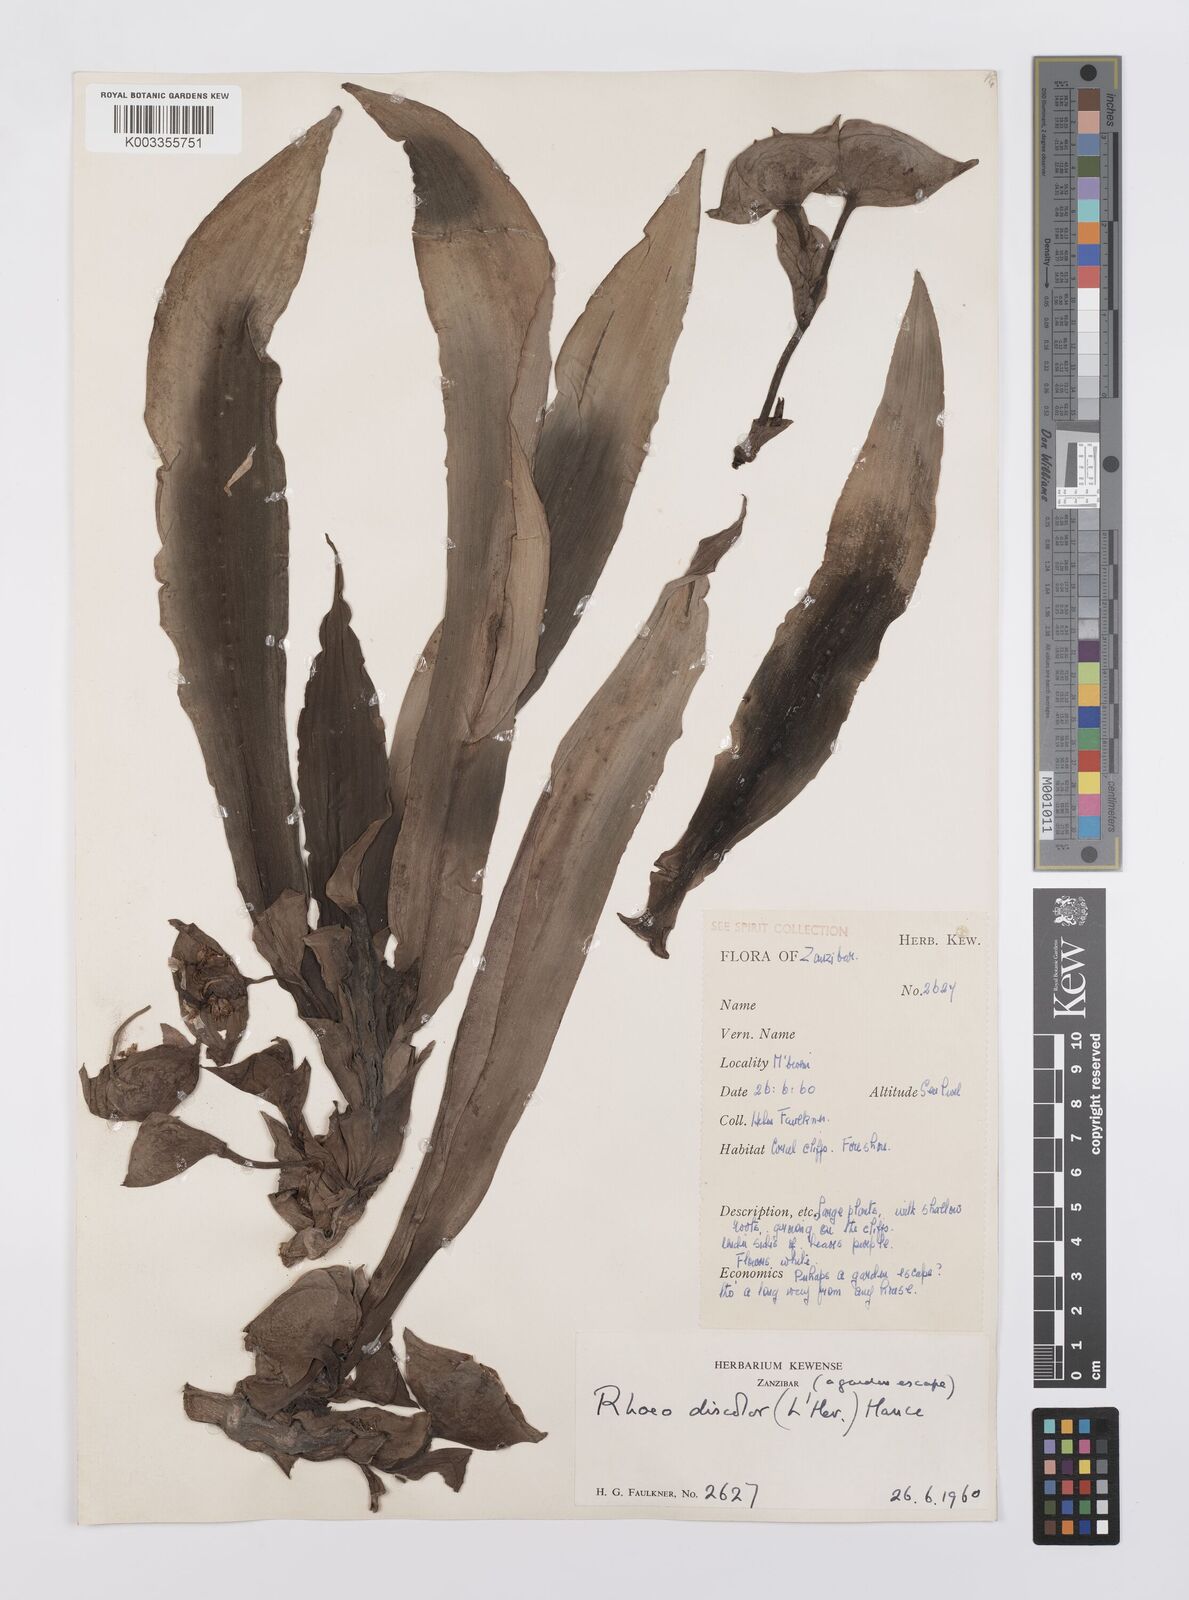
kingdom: Plantae
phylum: Tracheophyta
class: Liliopsida
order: Commelinales
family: Commelinaceae
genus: Tradescantia
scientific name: Tradescantia spathacea
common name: Boatlily
